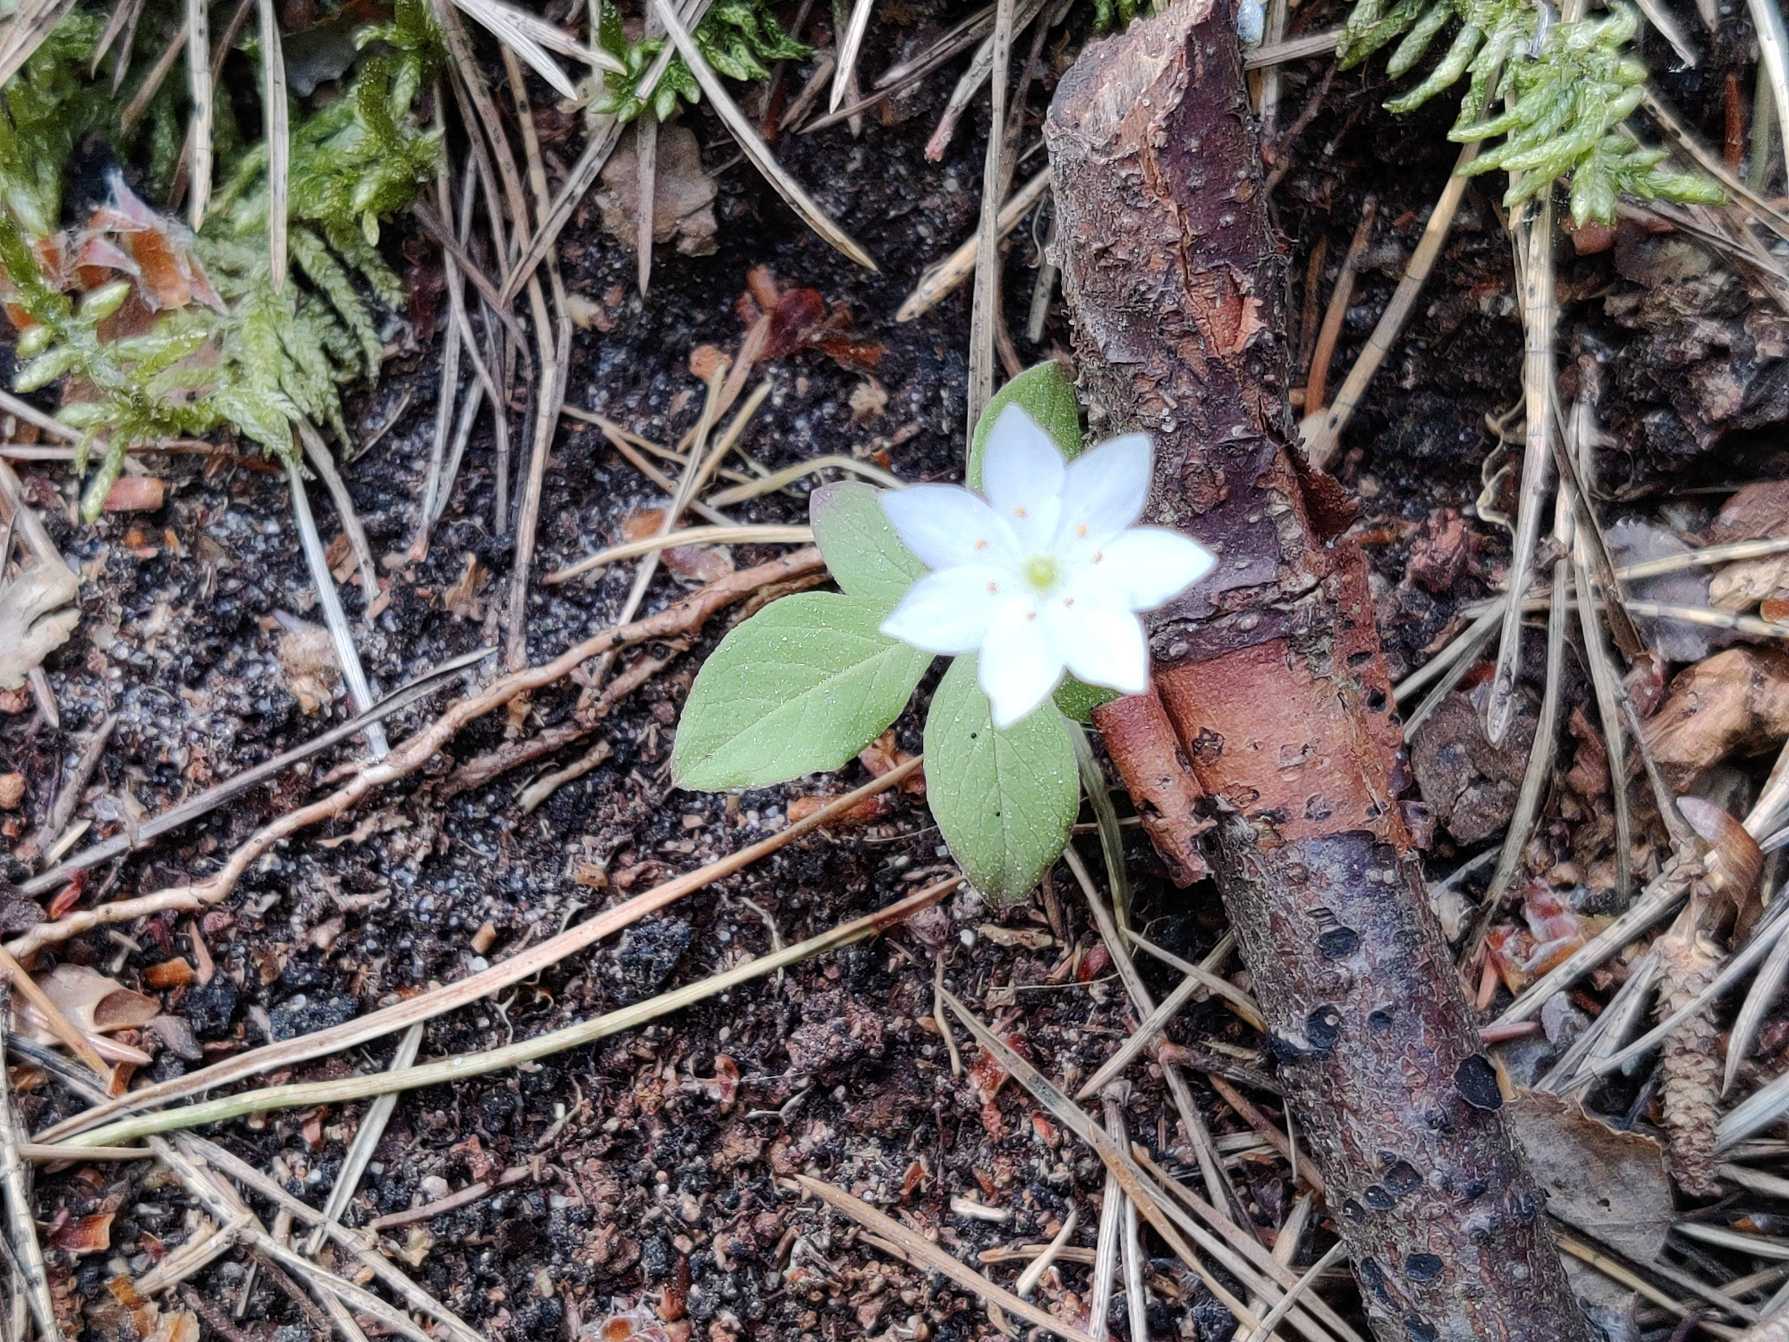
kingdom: Plantae
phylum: Tracheophyta
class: Magnoliopsida
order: Ericales
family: Primulaceae
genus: Lysimachia
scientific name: Lysimachia europaea
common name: Skovstjerne
